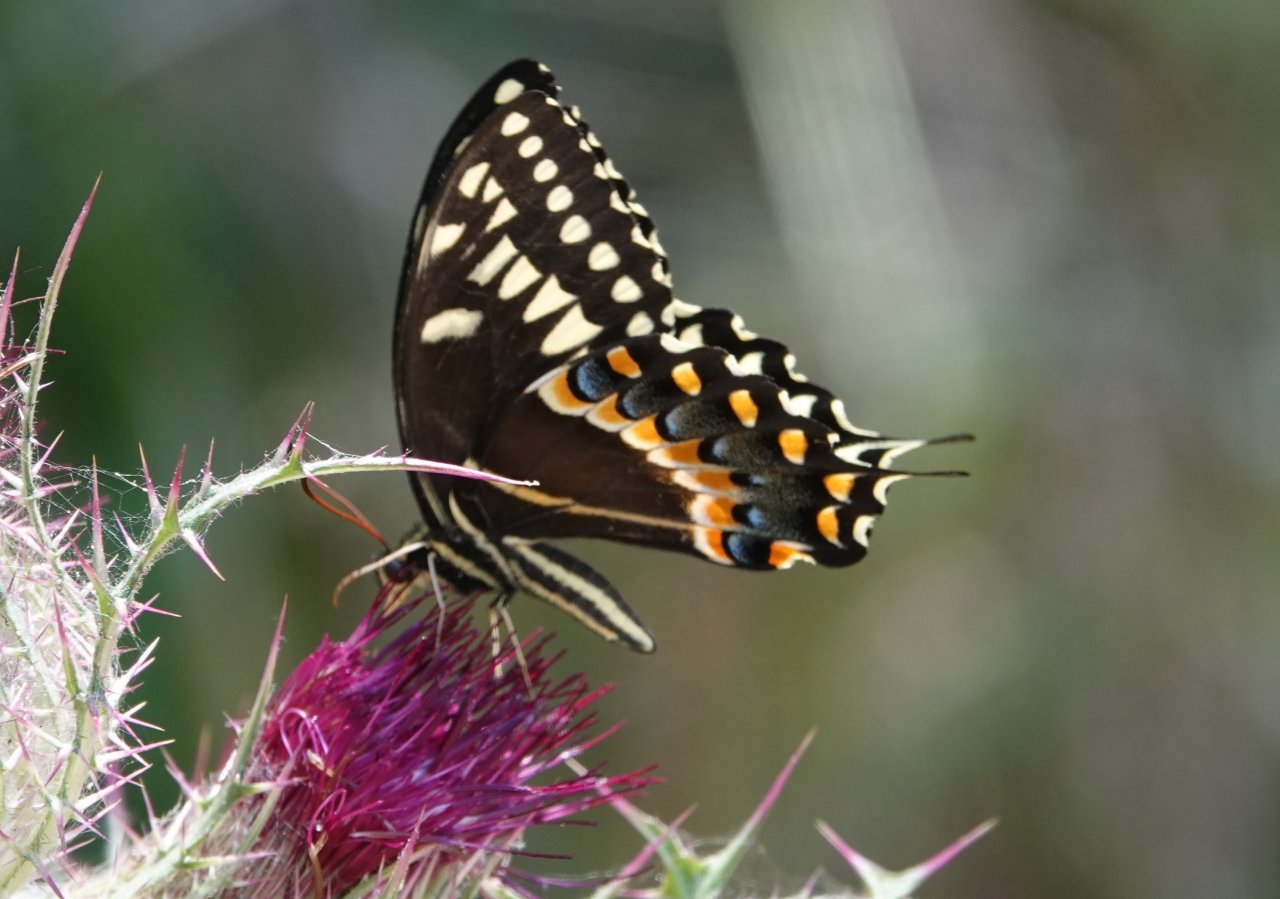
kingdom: Animalia
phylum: Arthropoda
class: Insecta
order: Lepidoptera
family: Papilionidae
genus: Pterourus
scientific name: Pterourus palamedes
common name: Palamedes Swallowtail
